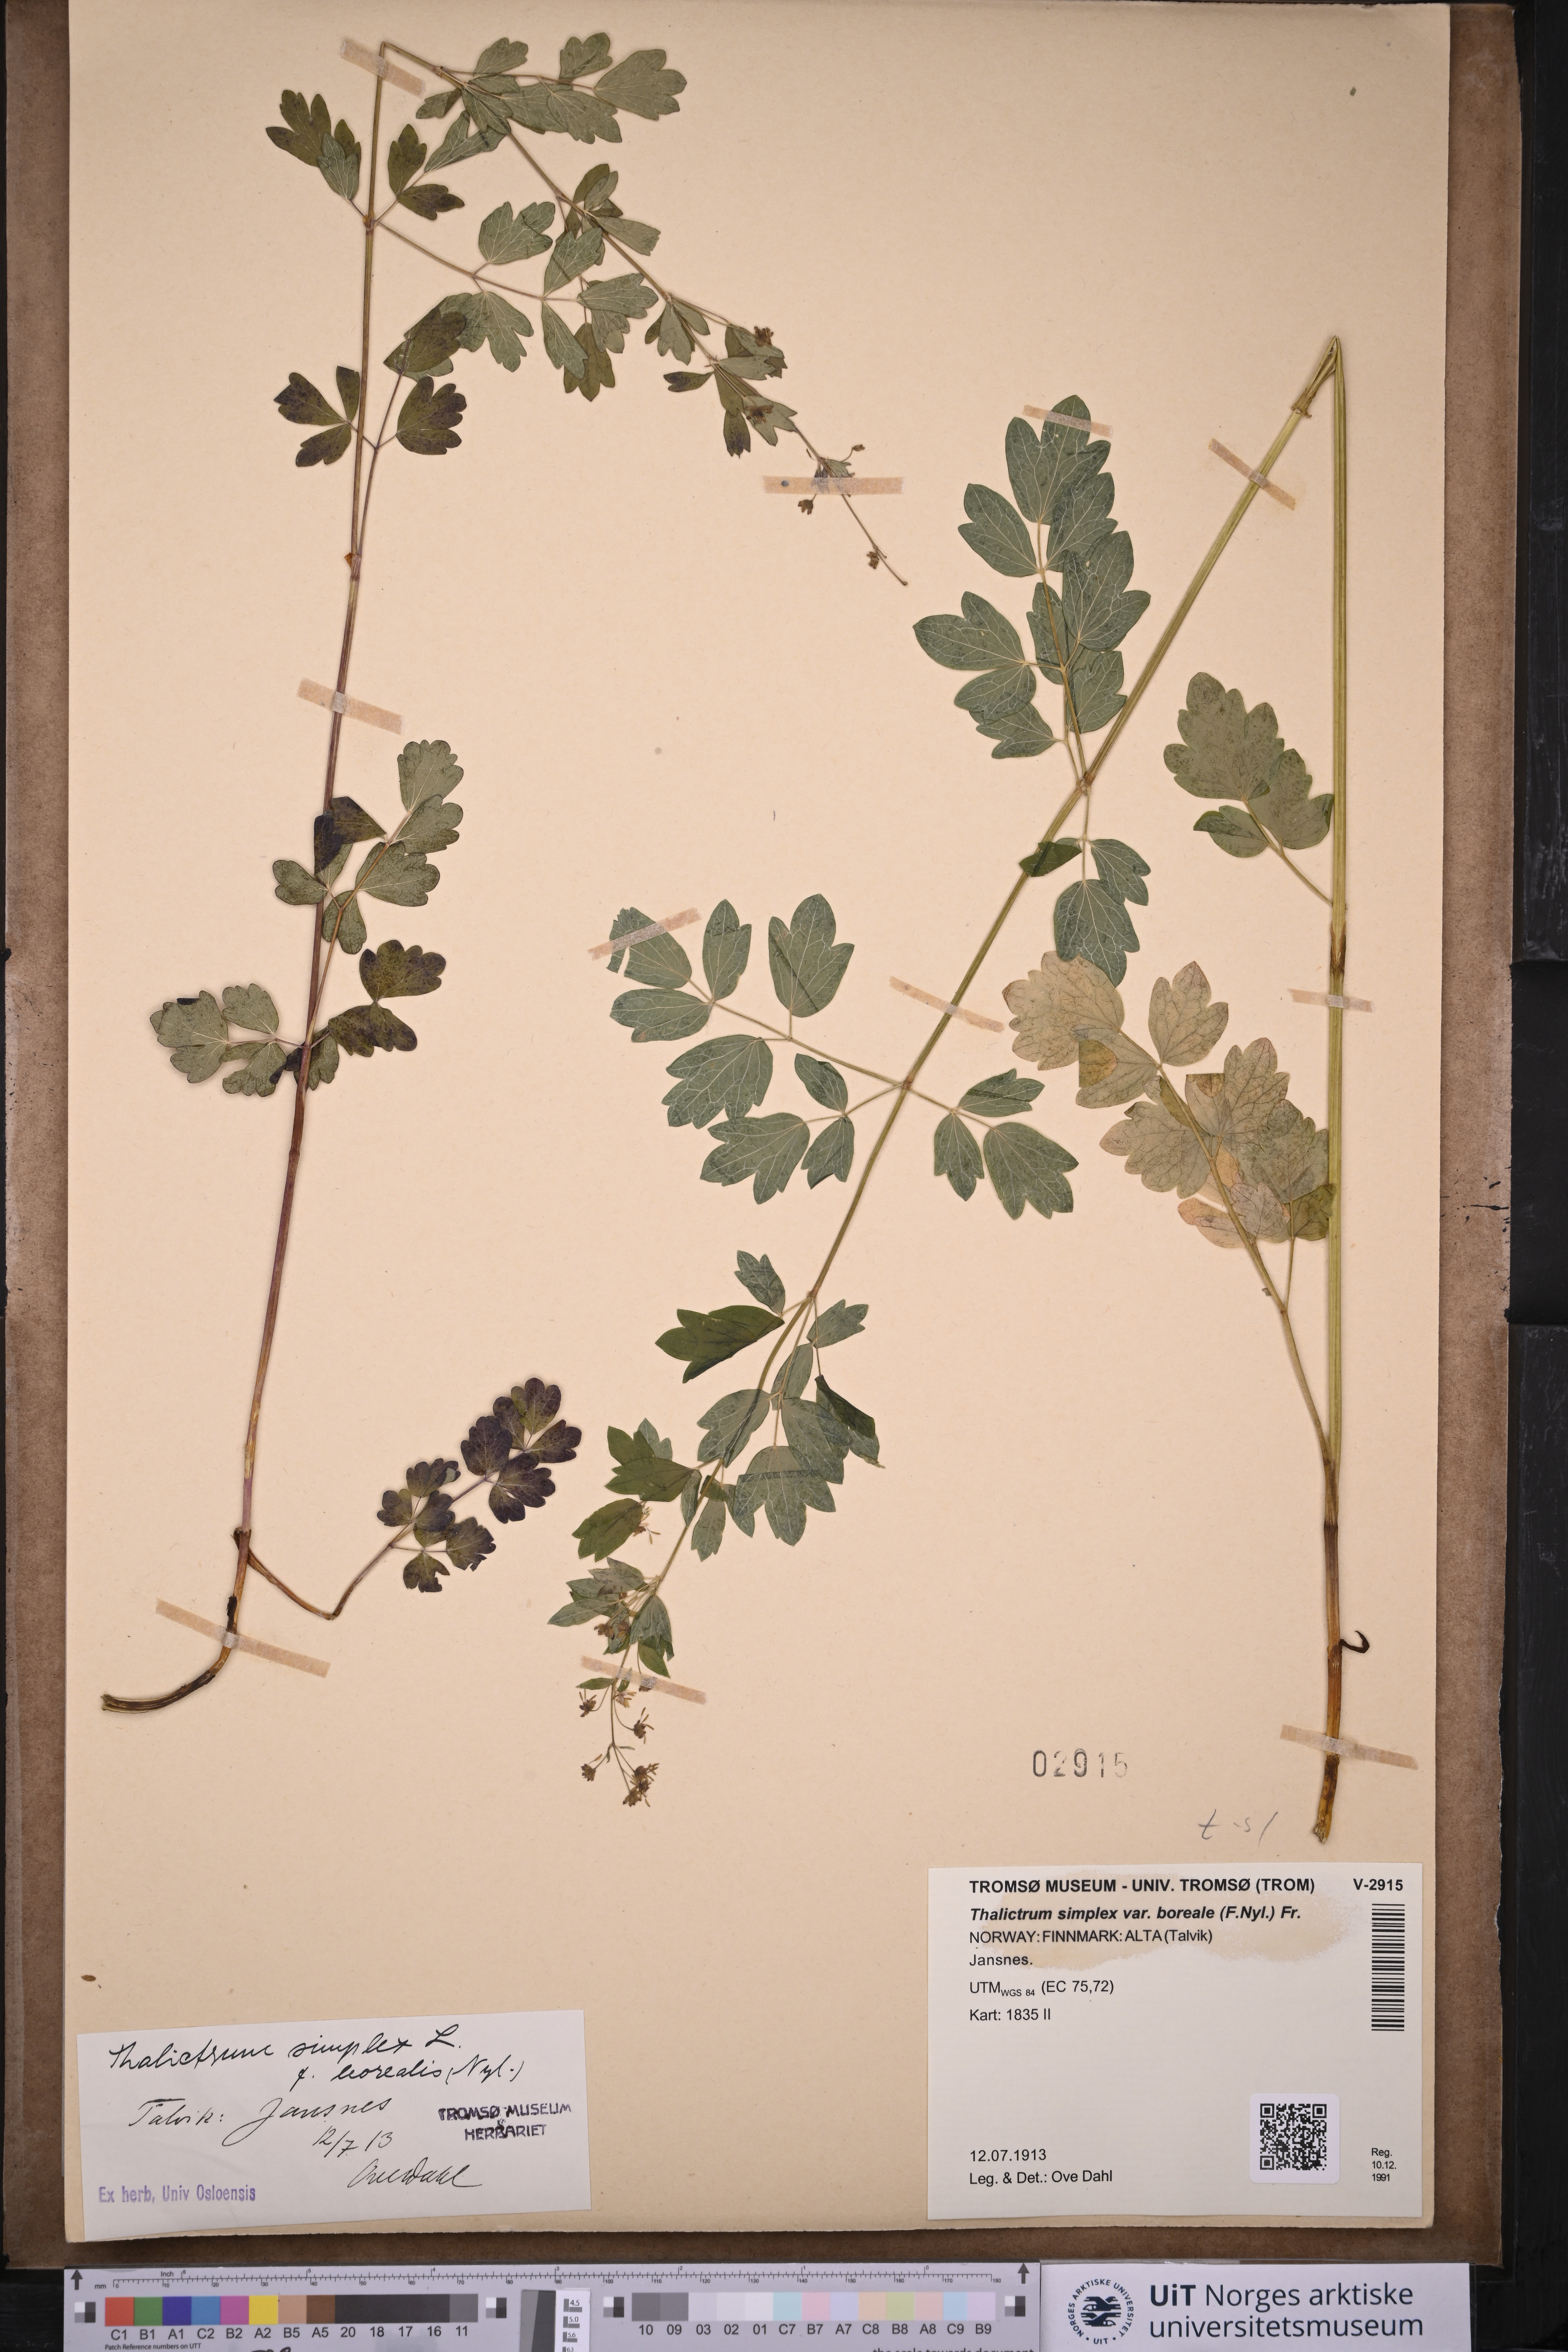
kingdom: Plantae
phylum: Tracheophyta
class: Magnoliopsida
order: Ranunculales
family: Ranunculaceae
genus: Thalictrum
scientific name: Thalictrum simplex
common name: Small meadow-rue
